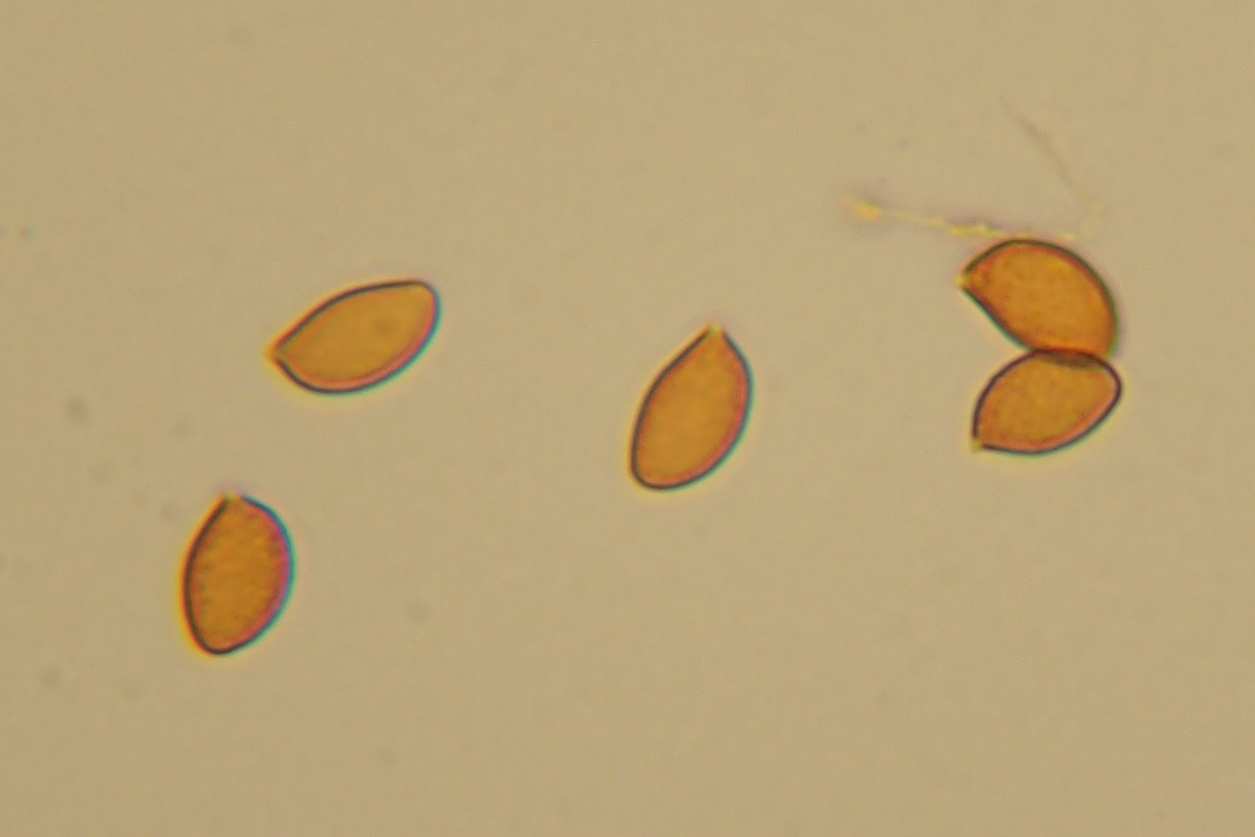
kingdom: Fungi
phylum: Basidiomycota
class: Agaricomycetes
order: Agaricales
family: Cortinariaceae
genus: Cortinarius
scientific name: Cortinarius violaceus
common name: Violet webcap
